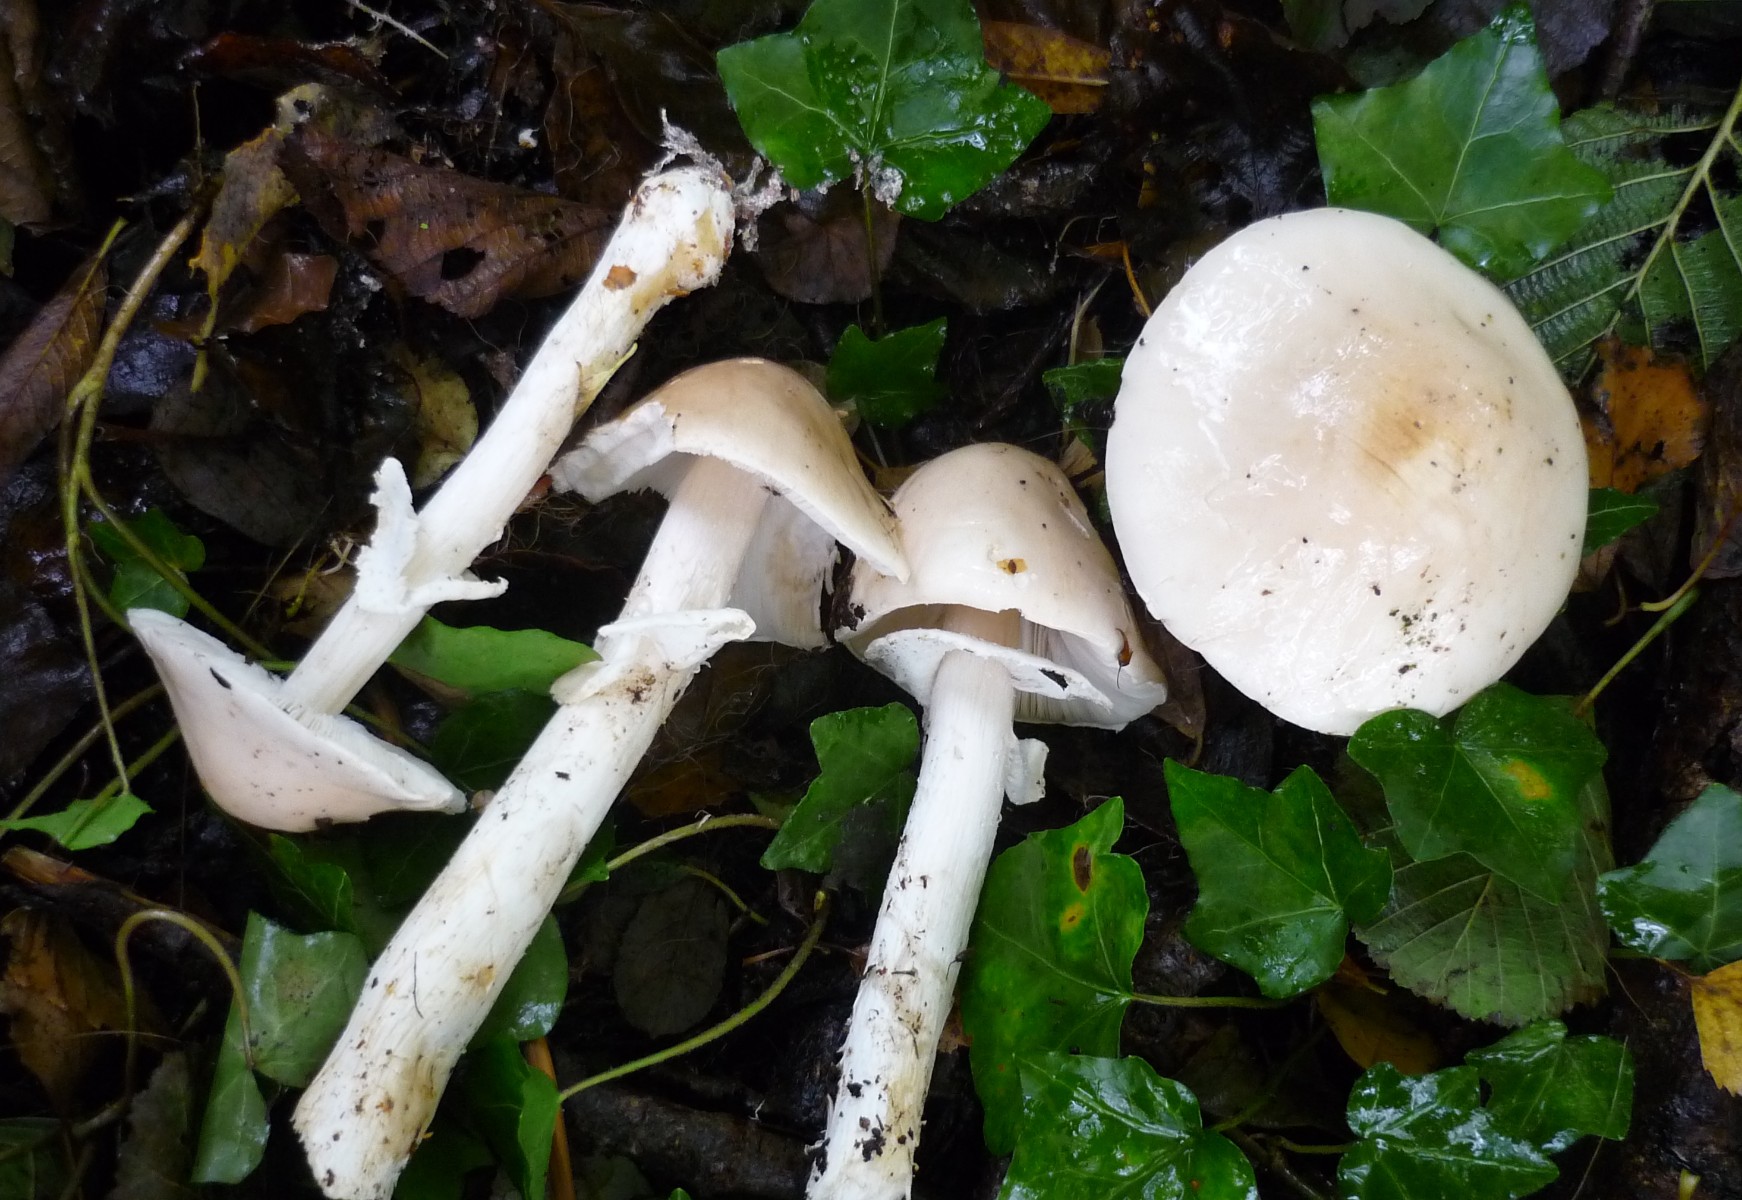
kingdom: Fungi
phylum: Basidiomycota
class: Agaricomycetes
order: Agaricales
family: Amanitaceae
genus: Limacellopsis
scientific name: Limacellopsis guttata
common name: tåre-snekkehat
